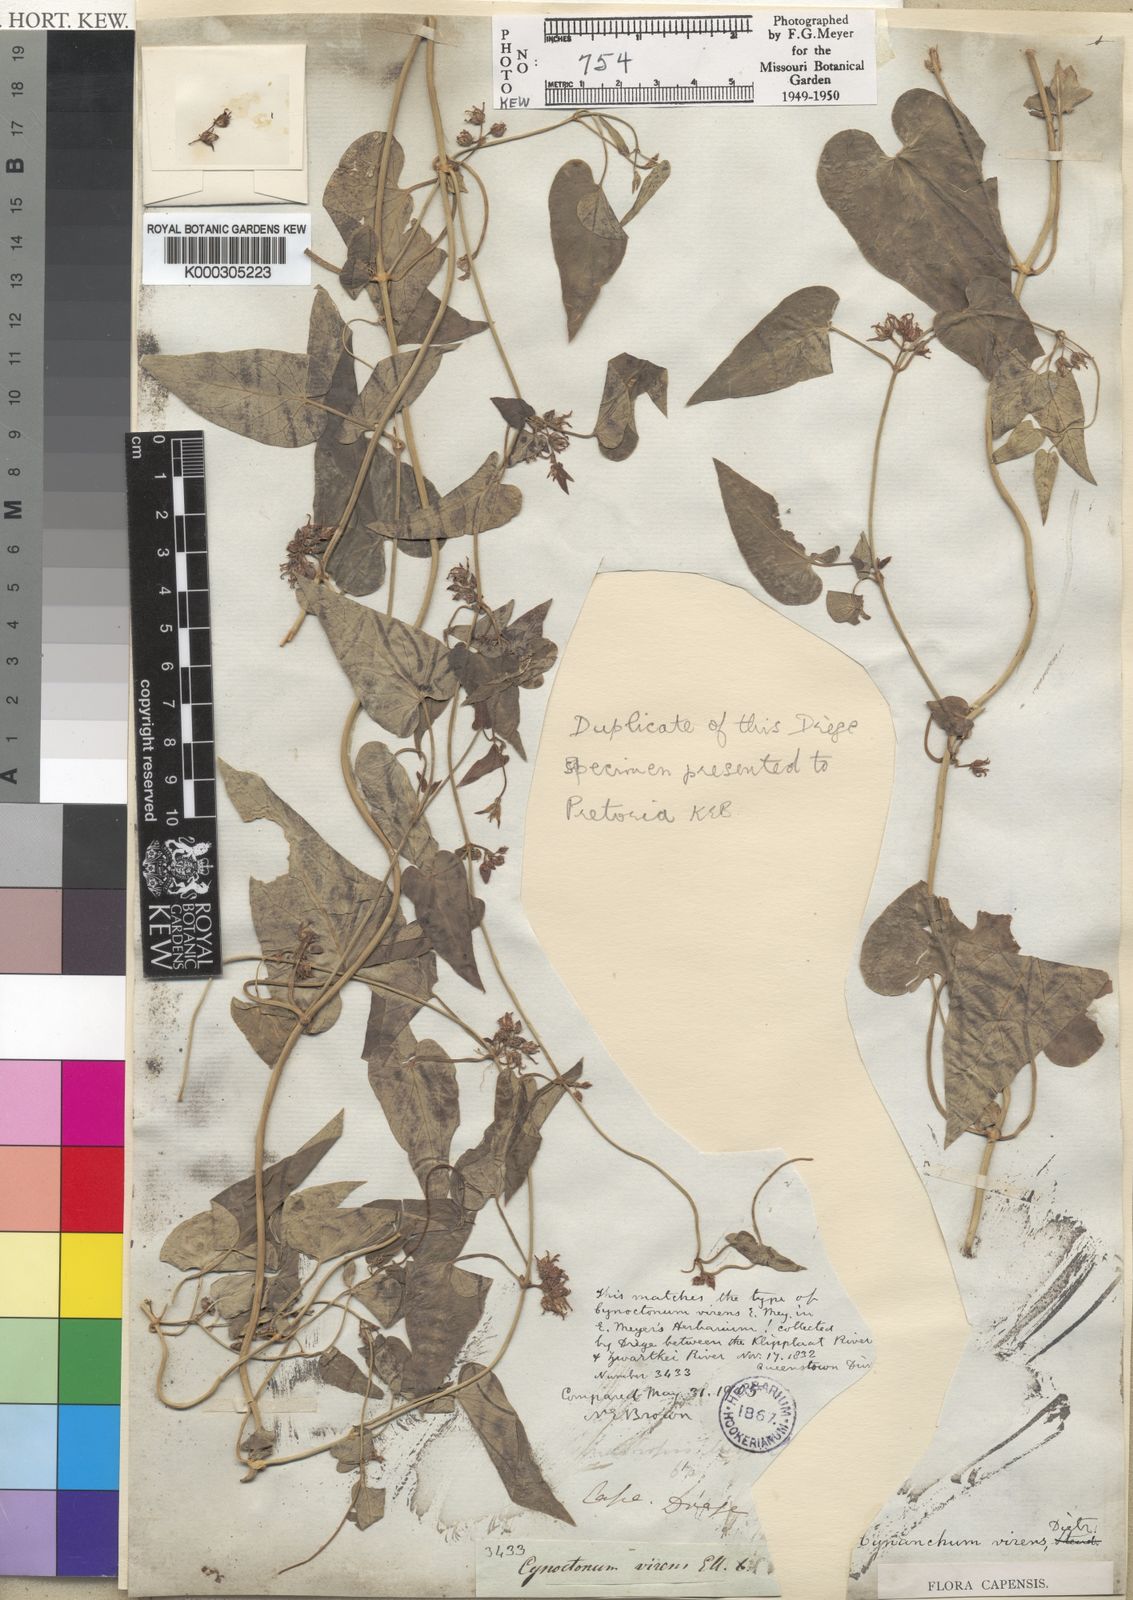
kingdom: Plantae
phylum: Tracheophyta
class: Magnoliopsida
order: Gentianales
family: Apocynaceae
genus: Cynanchum
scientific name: Cynanchum virens
